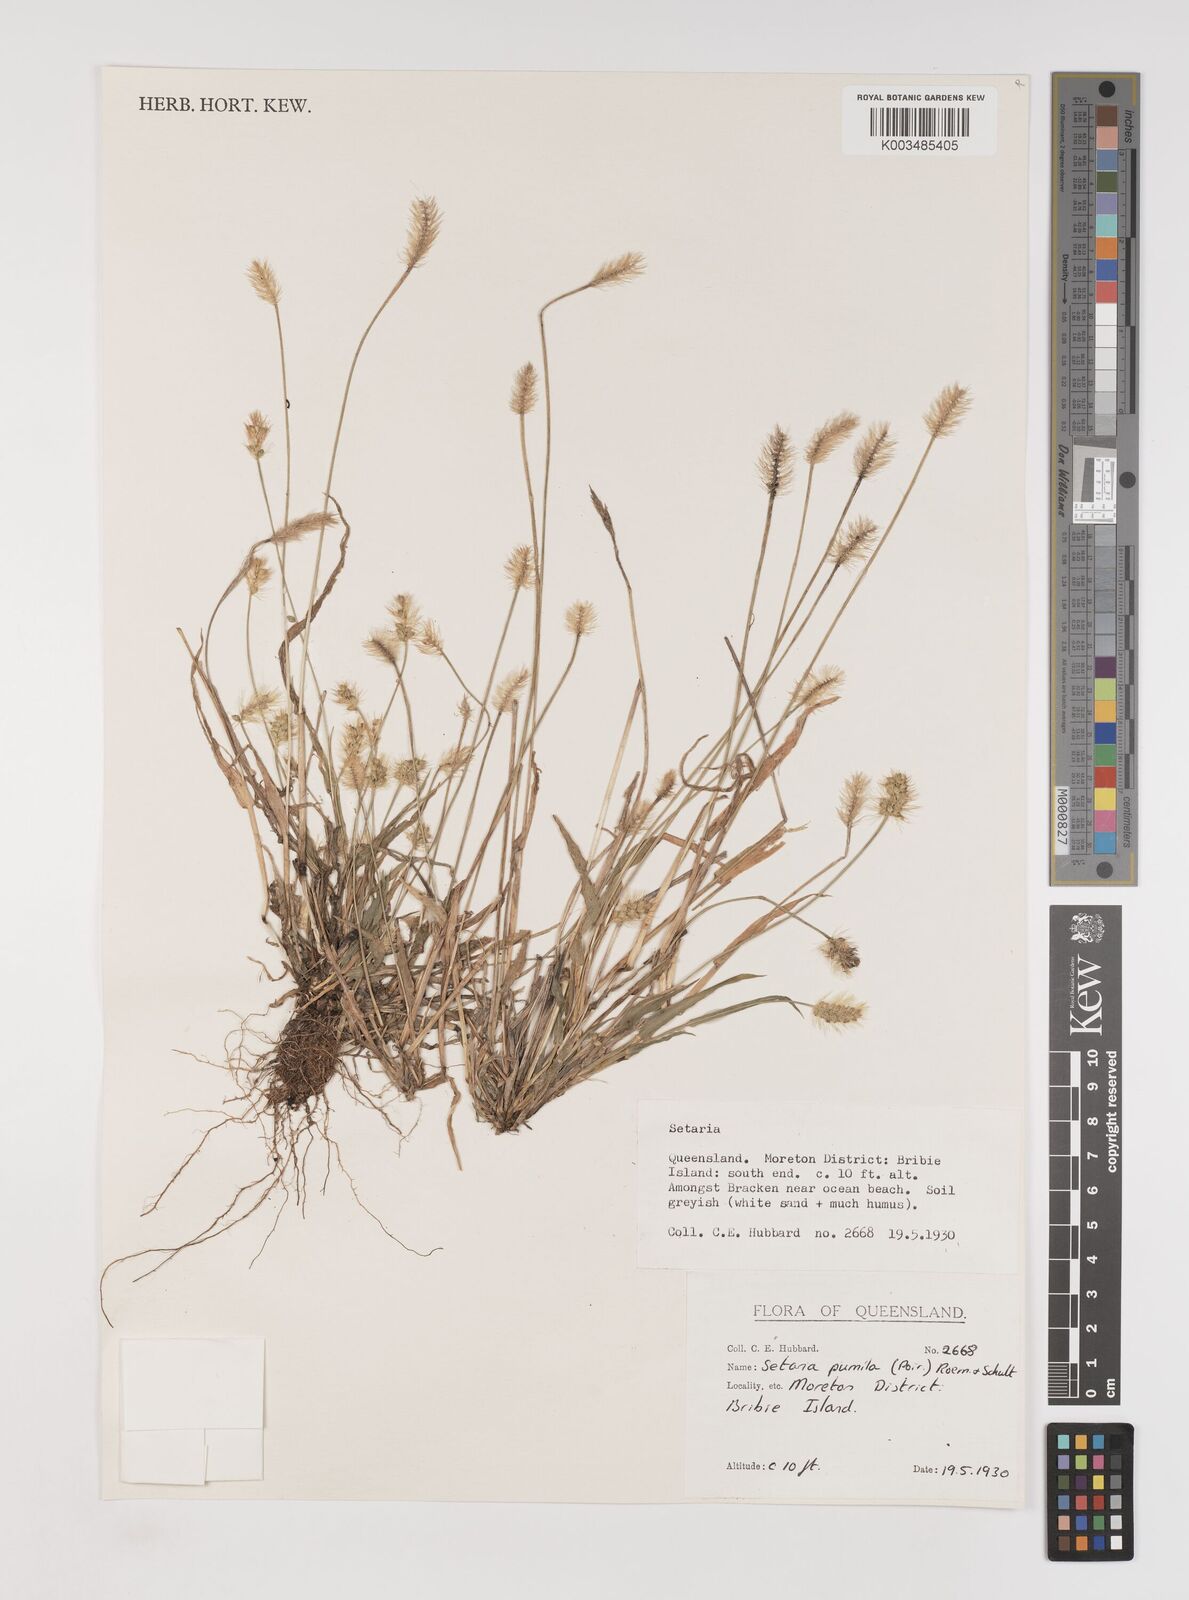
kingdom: Plantae
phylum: Tracheophyta
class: Liliopsida
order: Poales
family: Poaceae
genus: Setaria
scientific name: Setaria pumila
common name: Yellow bristle-grass
